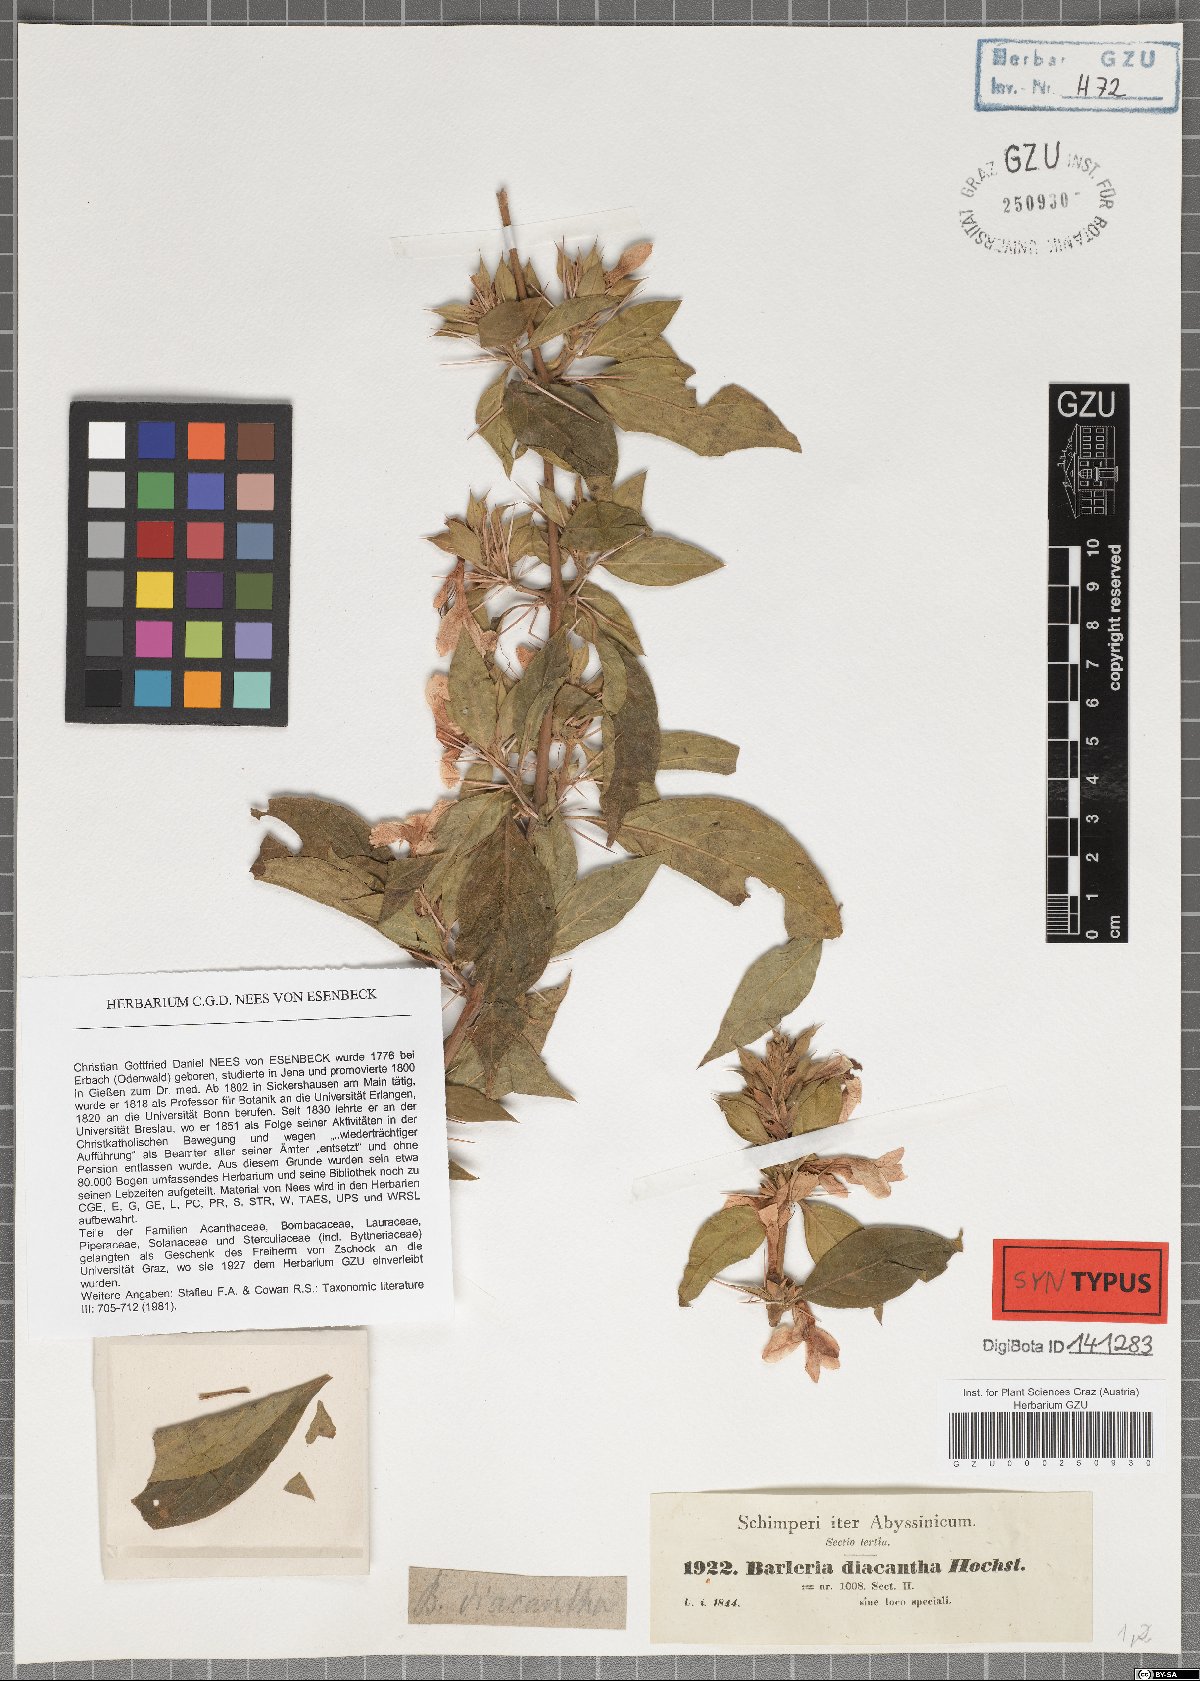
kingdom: Plantae
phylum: Tracheophyta
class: Magnoliopsida
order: Lamiales
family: Acanthaceae
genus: Barleria
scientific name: Barleria trispinosa
